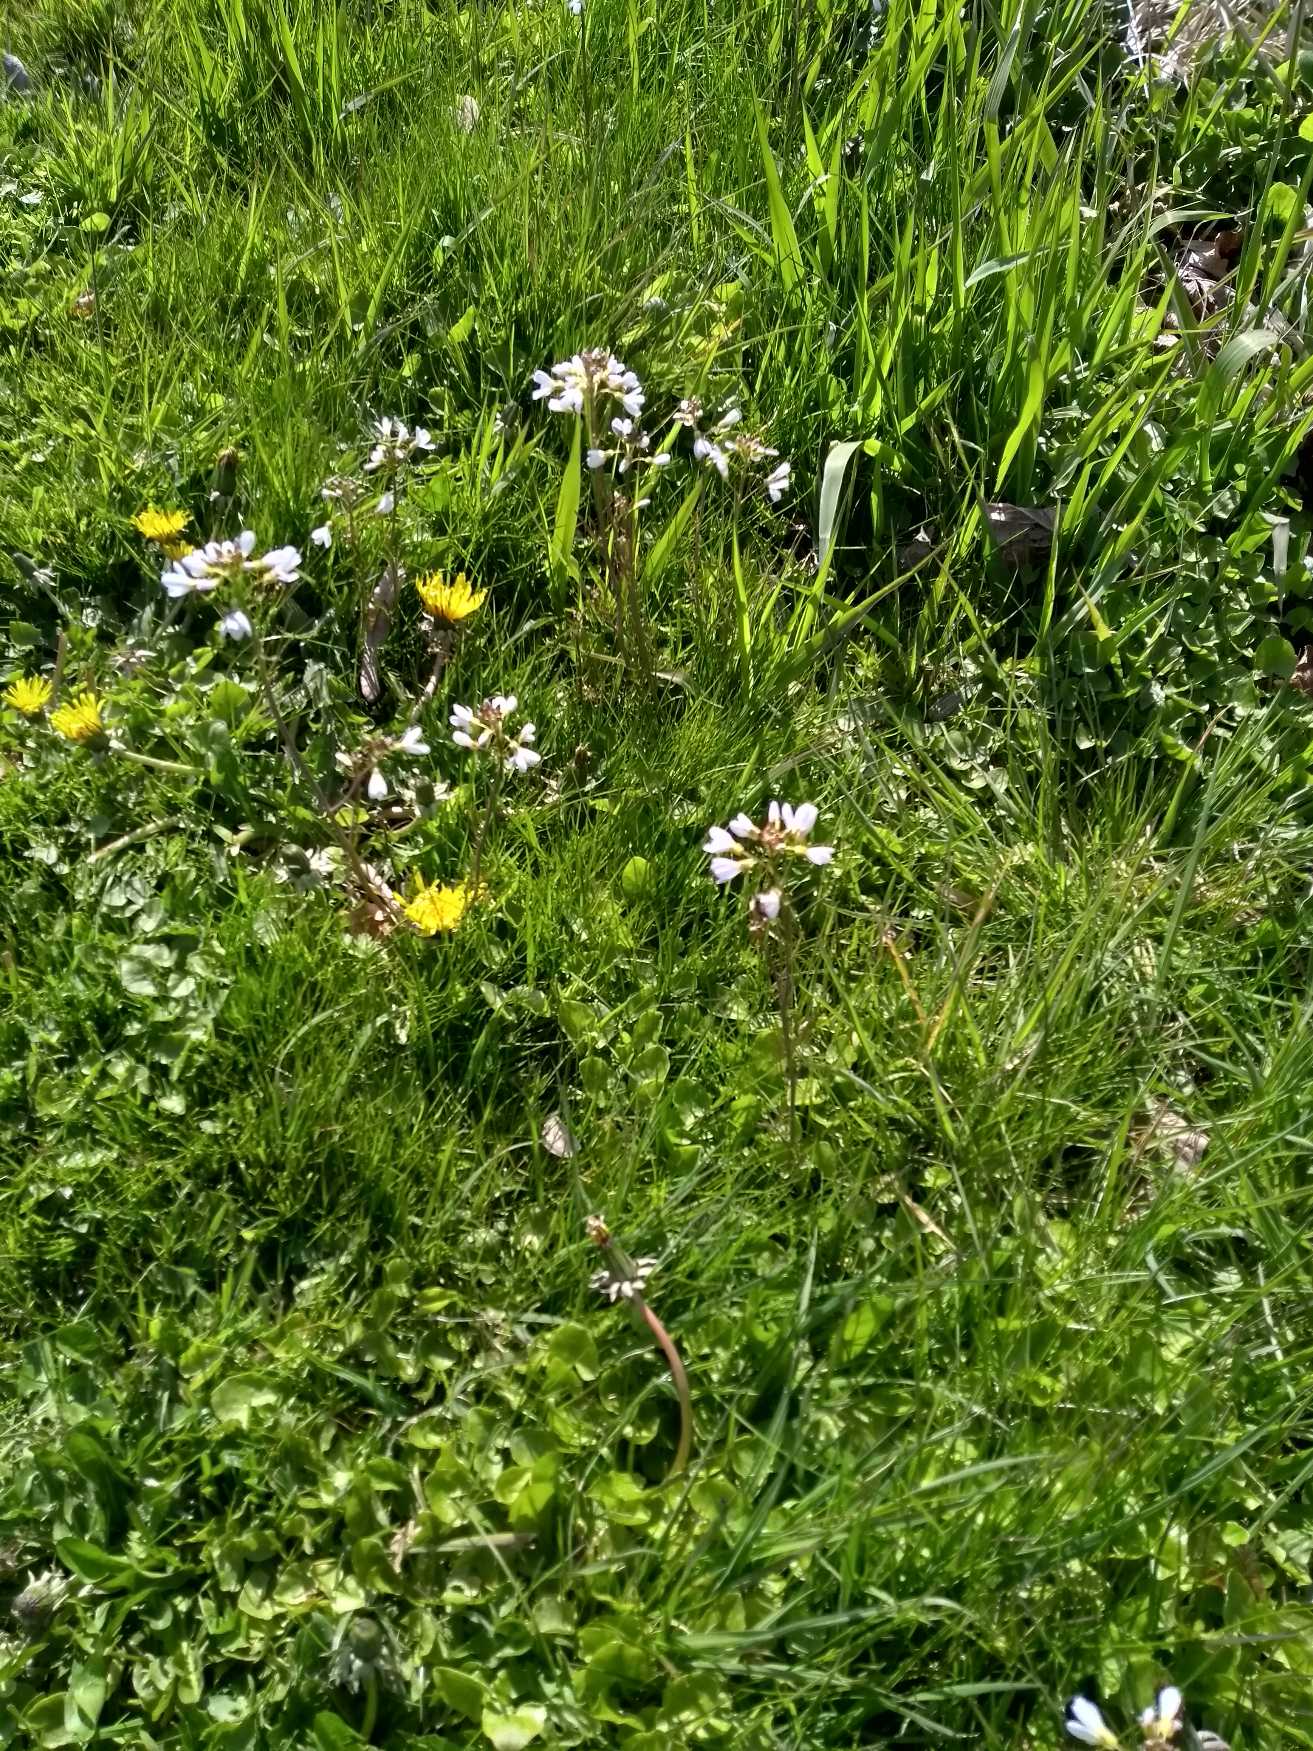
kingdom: Plantae
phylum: Tracheophyta
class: Magnoliopsida
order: Brassicales
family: Brassicaceae
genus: Cardamine
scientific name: Cardamine pratensis
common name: Engkarse
